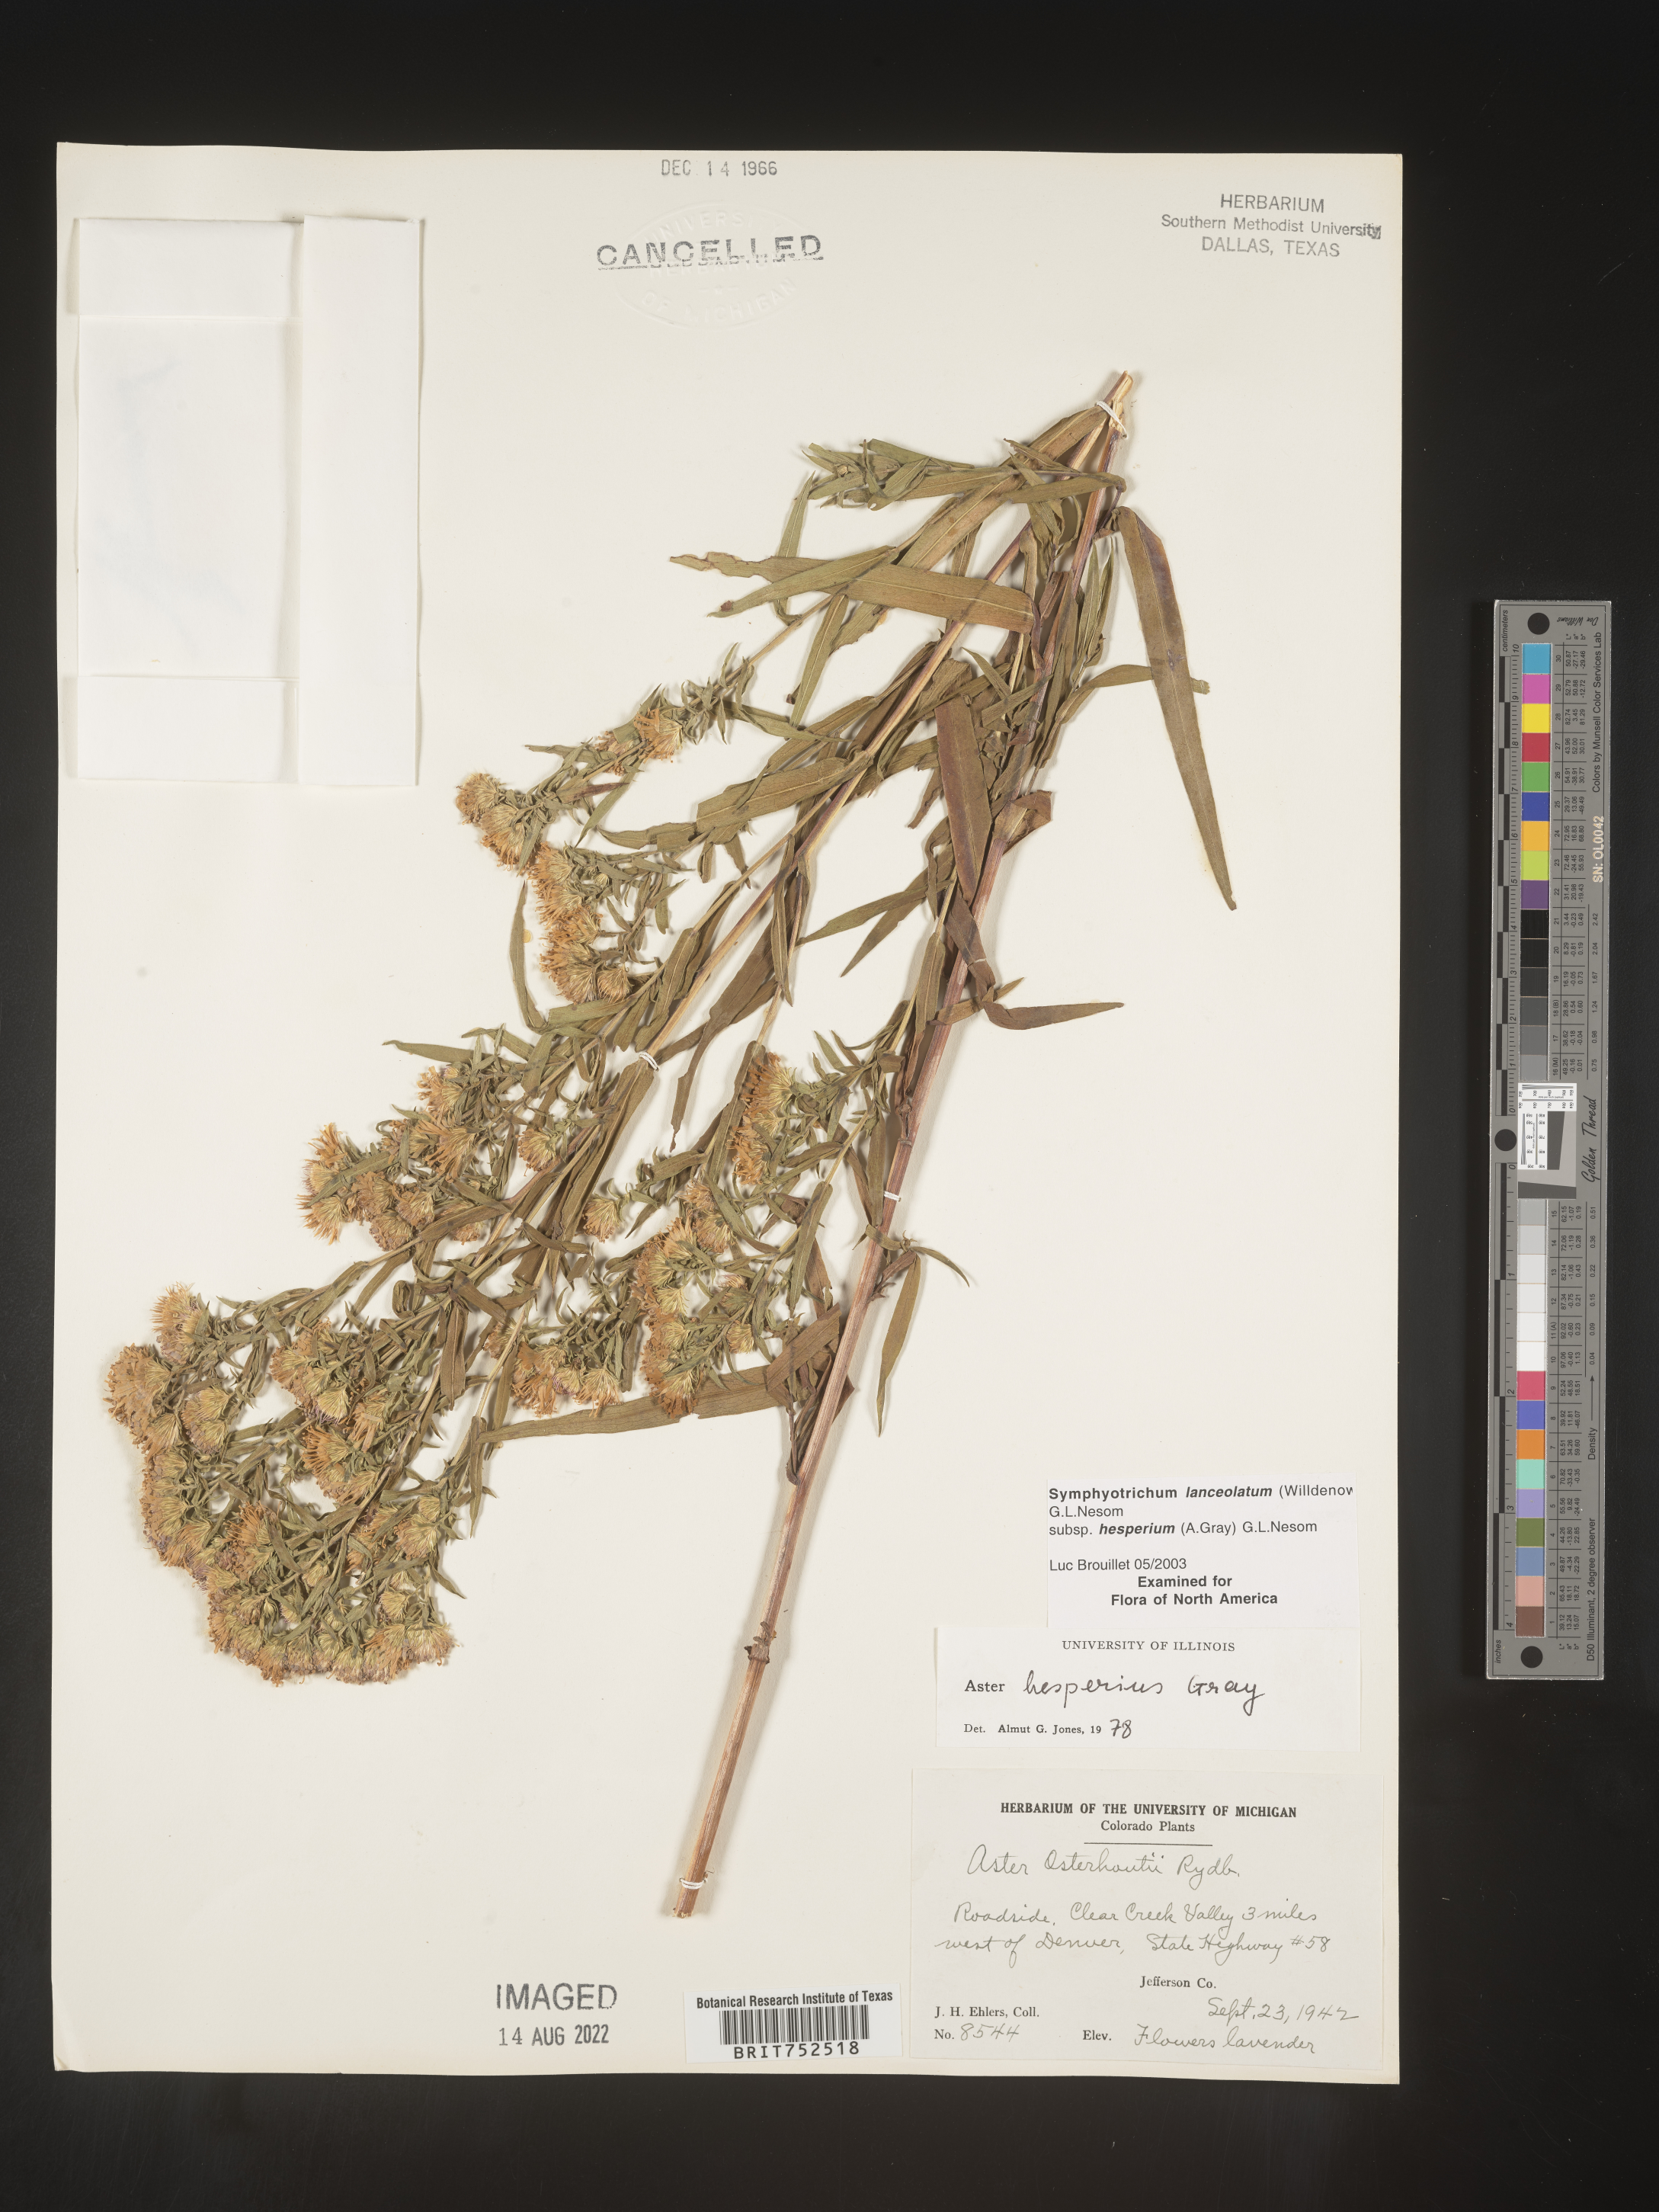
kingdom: Plantae
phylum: Tracheophyta
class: Magnoliopsida
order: Asterales
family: Asteraceae
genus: Symphyotrichum
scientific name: Symphyotrichum lanceolatum
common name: Panicled aster
